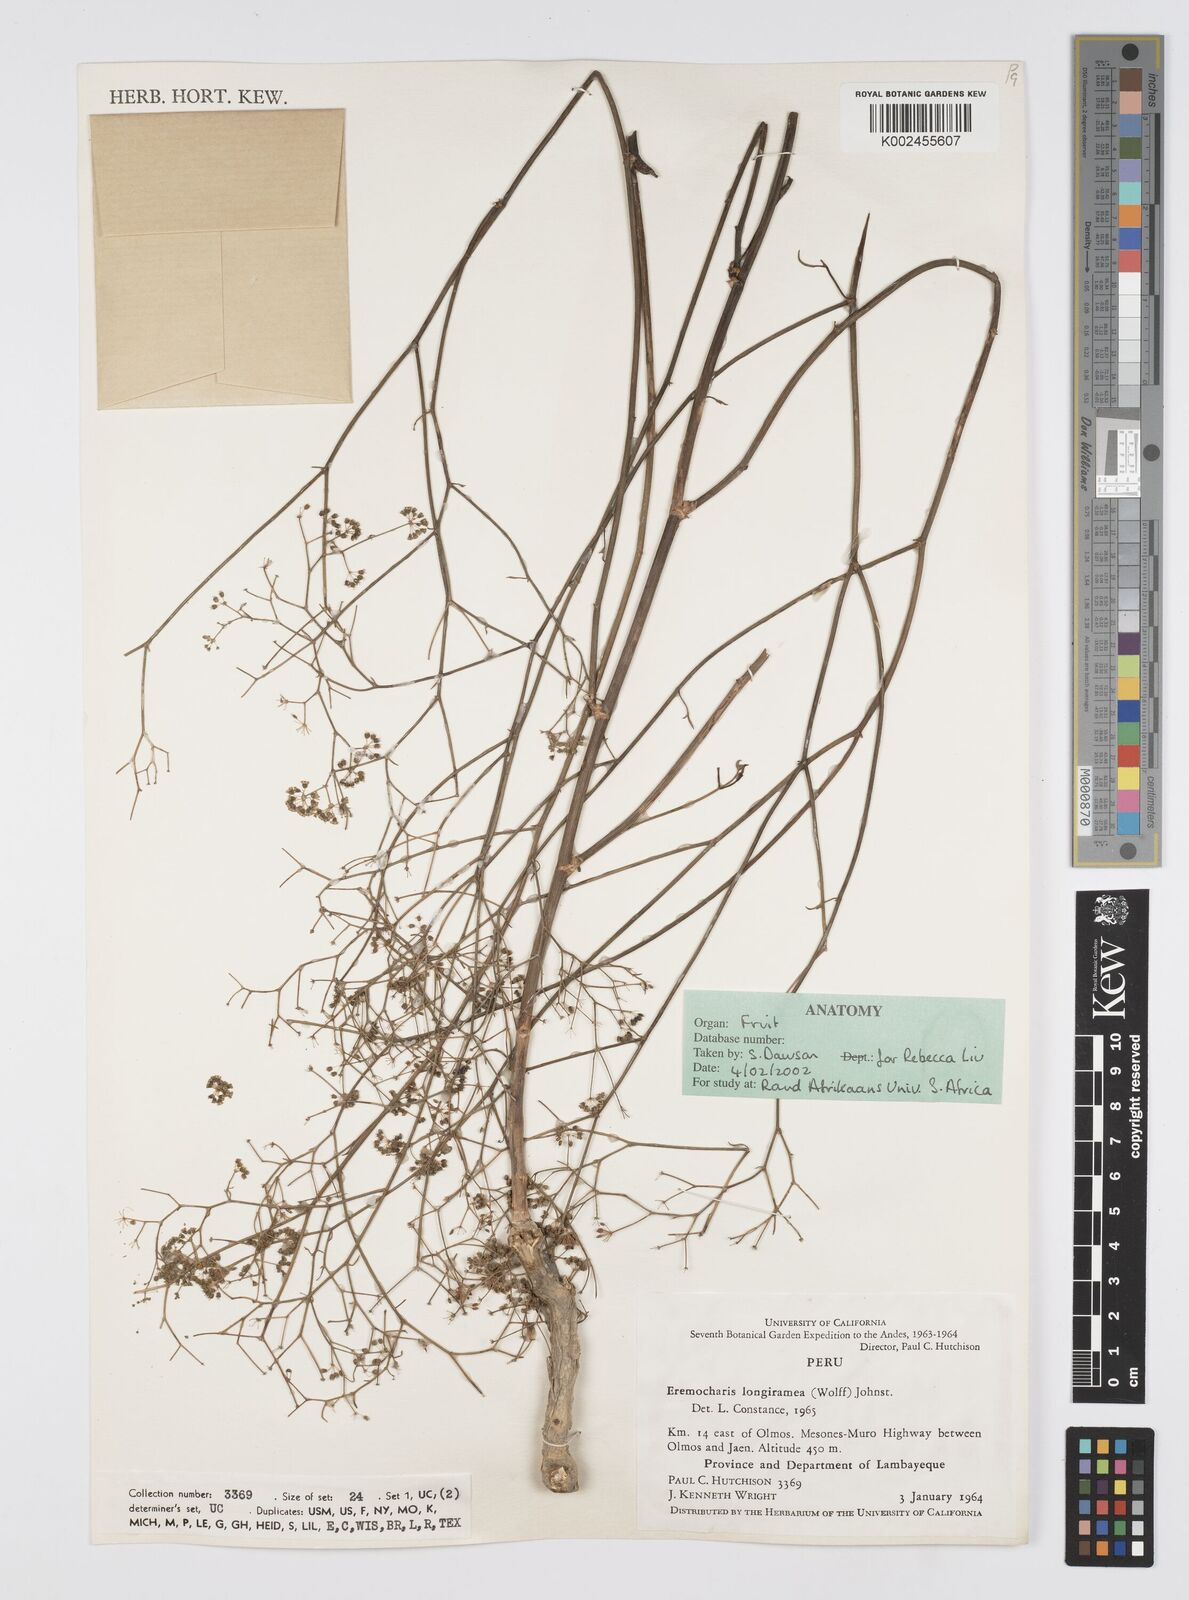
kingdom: Plantae
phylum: Tracheophyta
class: Magnoliopsida
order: Apiales
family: Apiaceae
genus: Eremocharis
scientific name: Eremocharis longiramea
